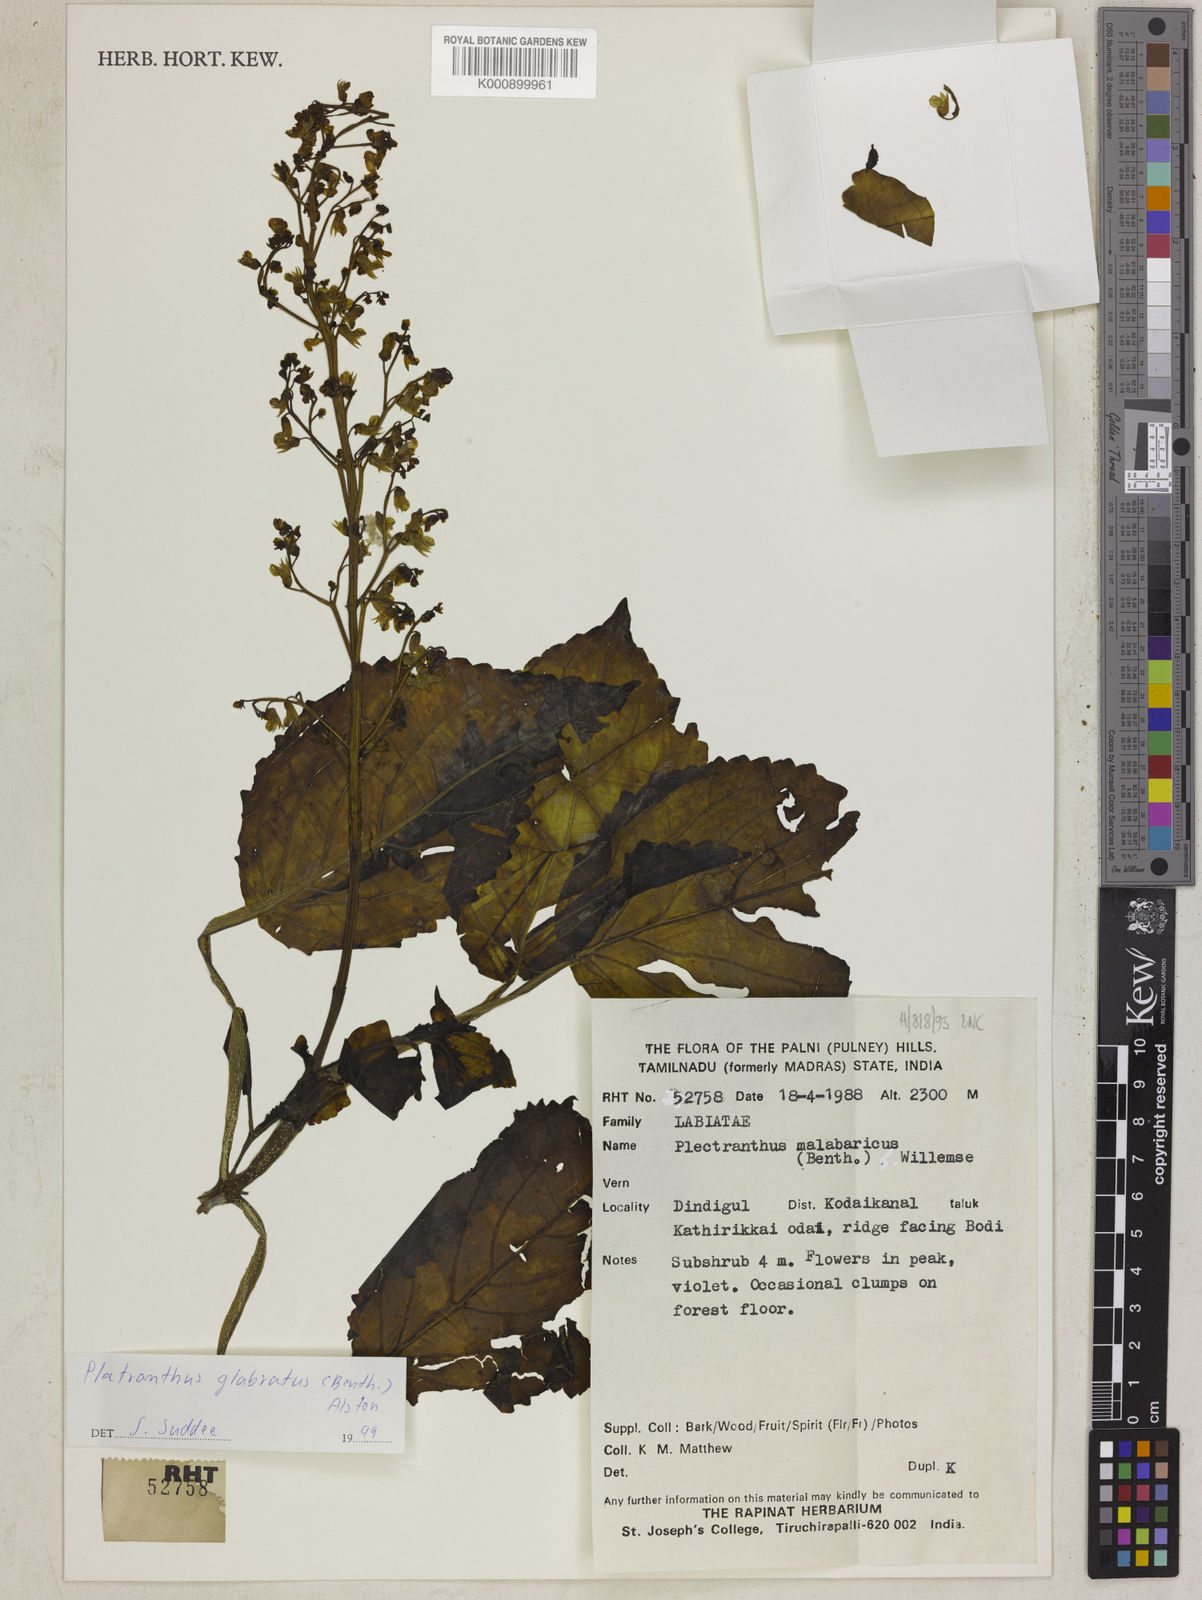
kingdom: Plantae
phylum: Tracheophyta
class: Magnoliopsida
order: Lamiales
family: Lamiaceae
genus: Coleus
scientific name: Coleus paniculatus
